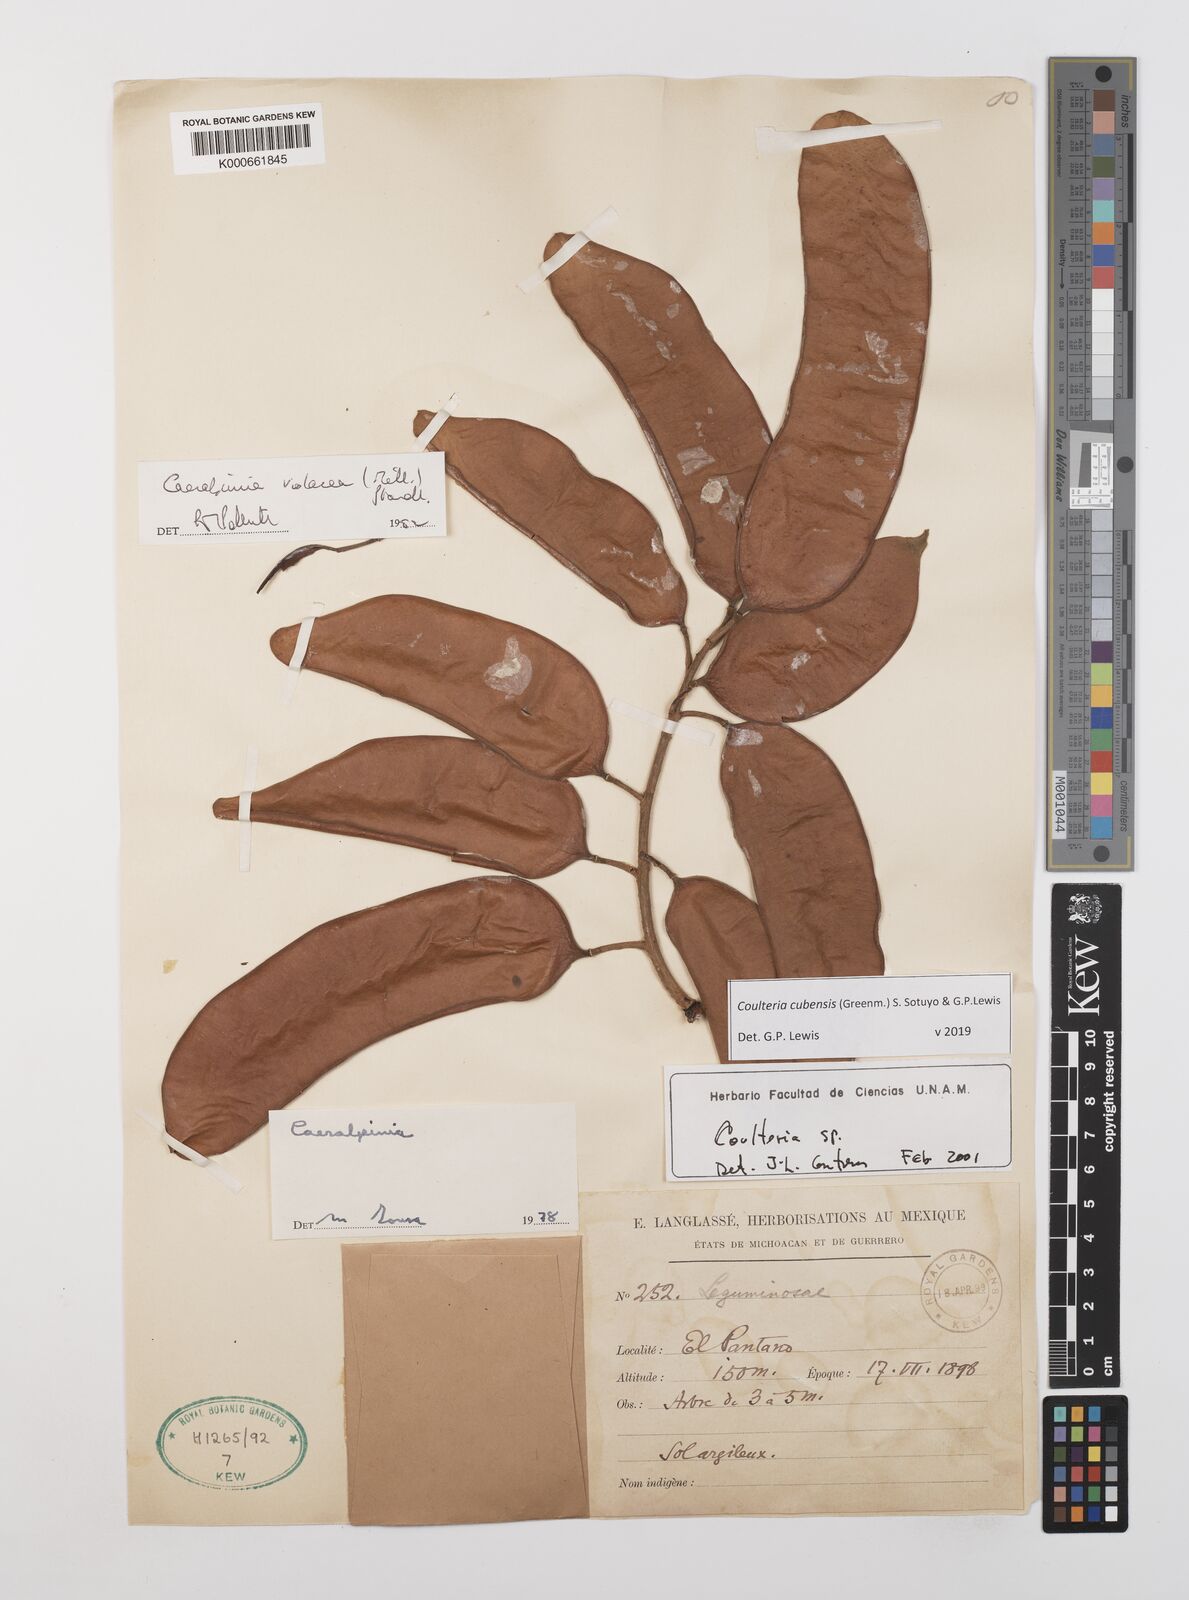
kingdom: Plantae
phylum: Tracheophyta
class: Magnoliopsida
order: Fabales
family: Fabaceae
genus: Coulteria
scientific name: Coulteria cubensis
